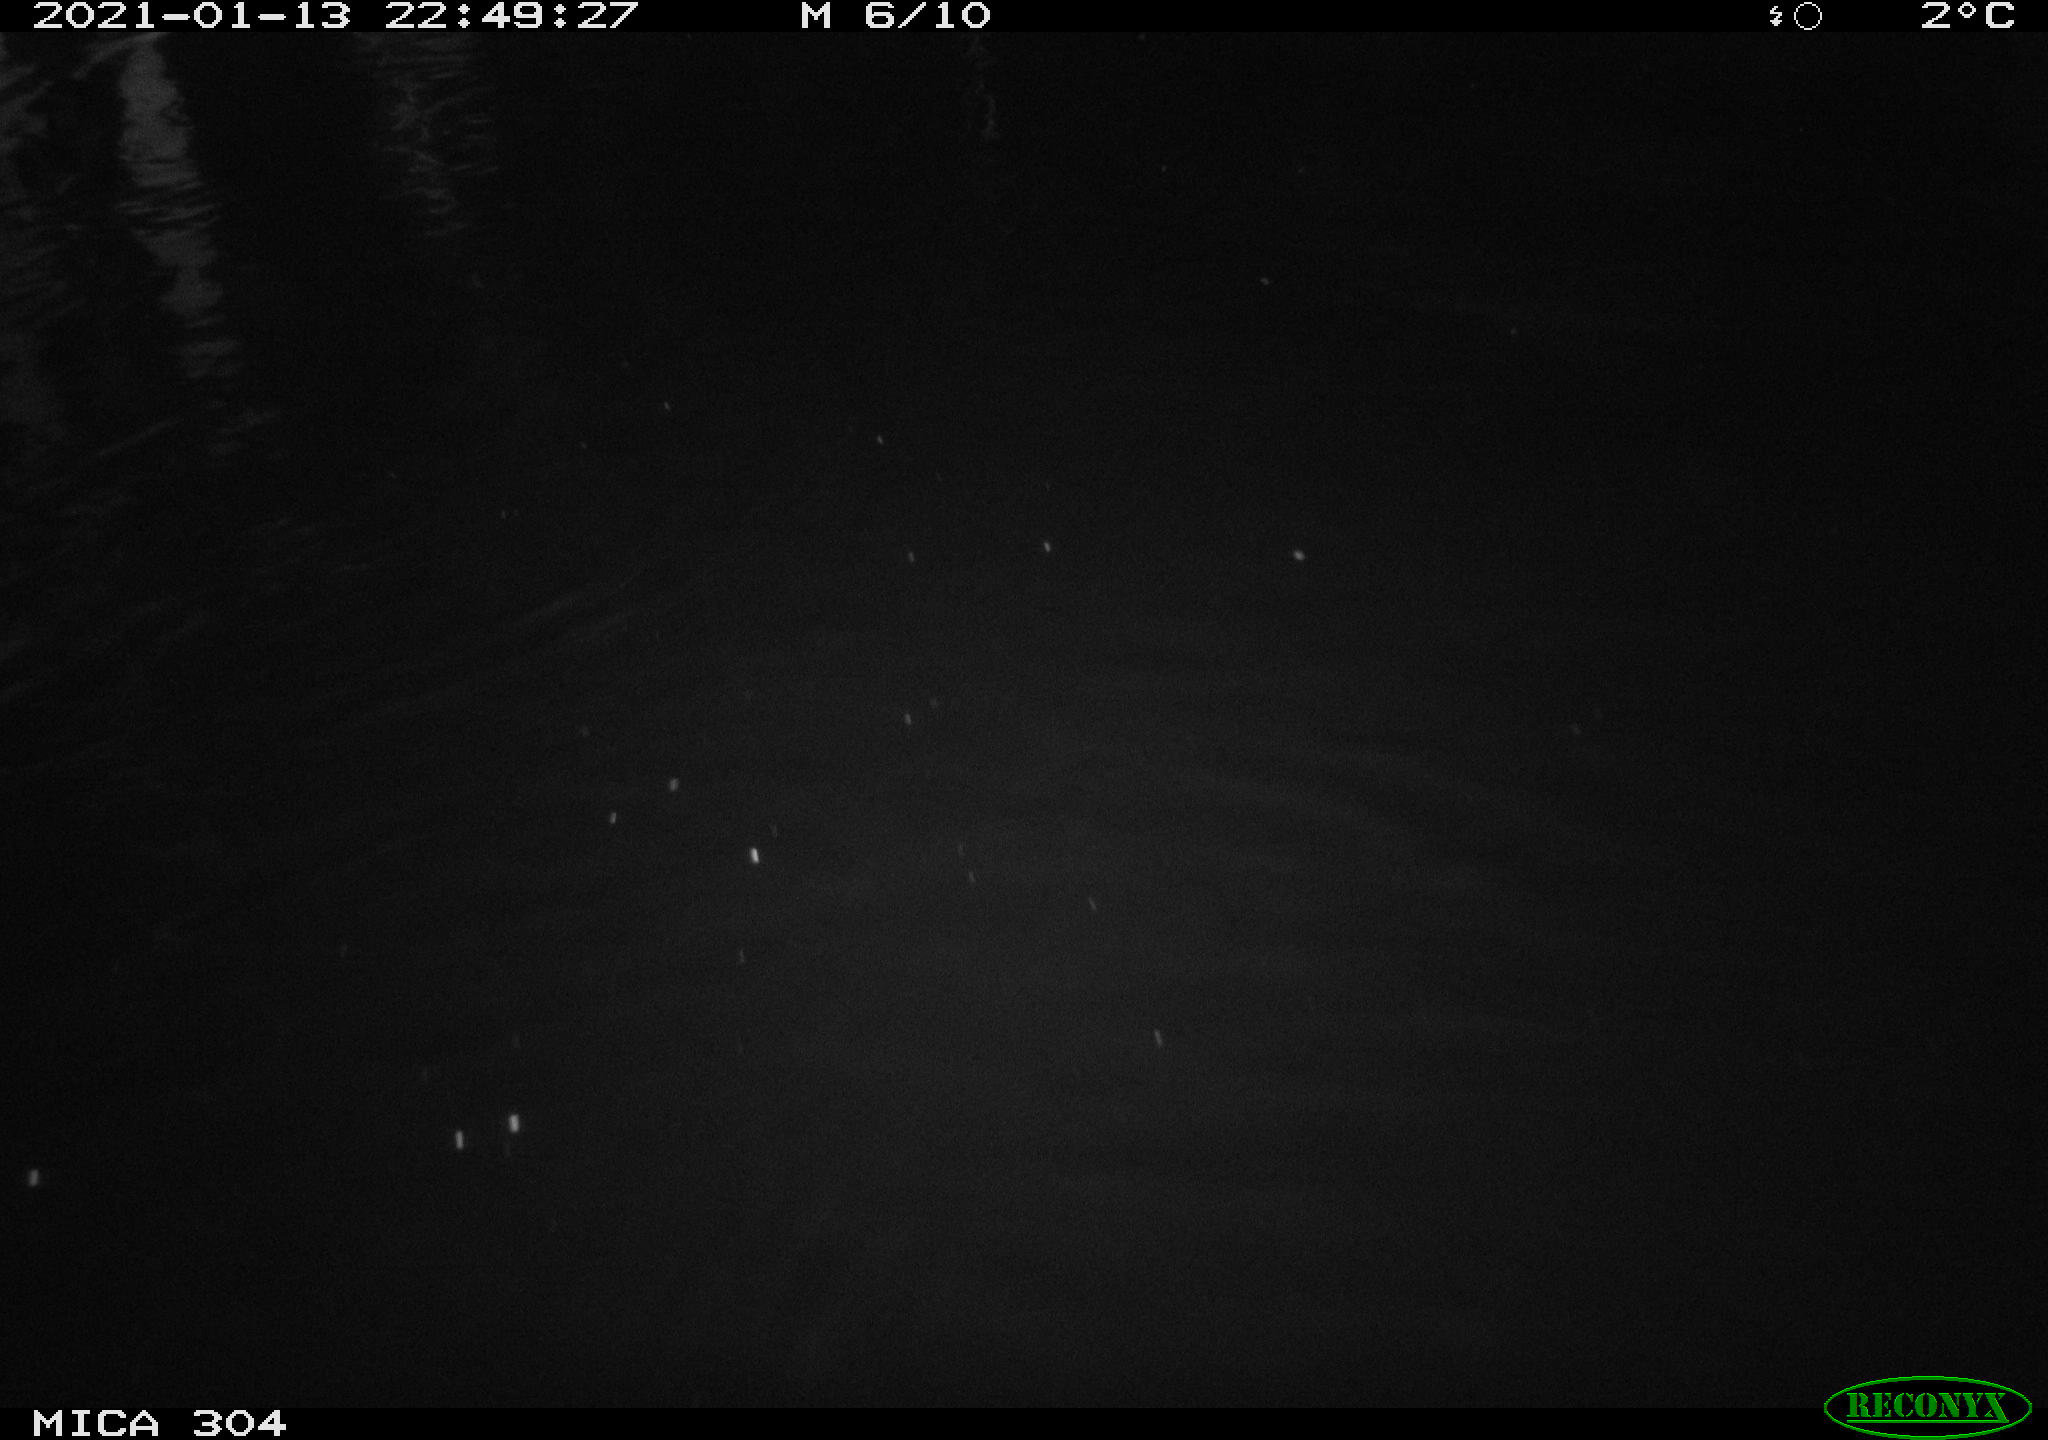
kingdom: Animalia
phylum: Chordata
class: Mammalia
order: Rodentia
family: Muridae
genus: Rattus
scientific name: Rattus norvegicus
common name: Brown rat
